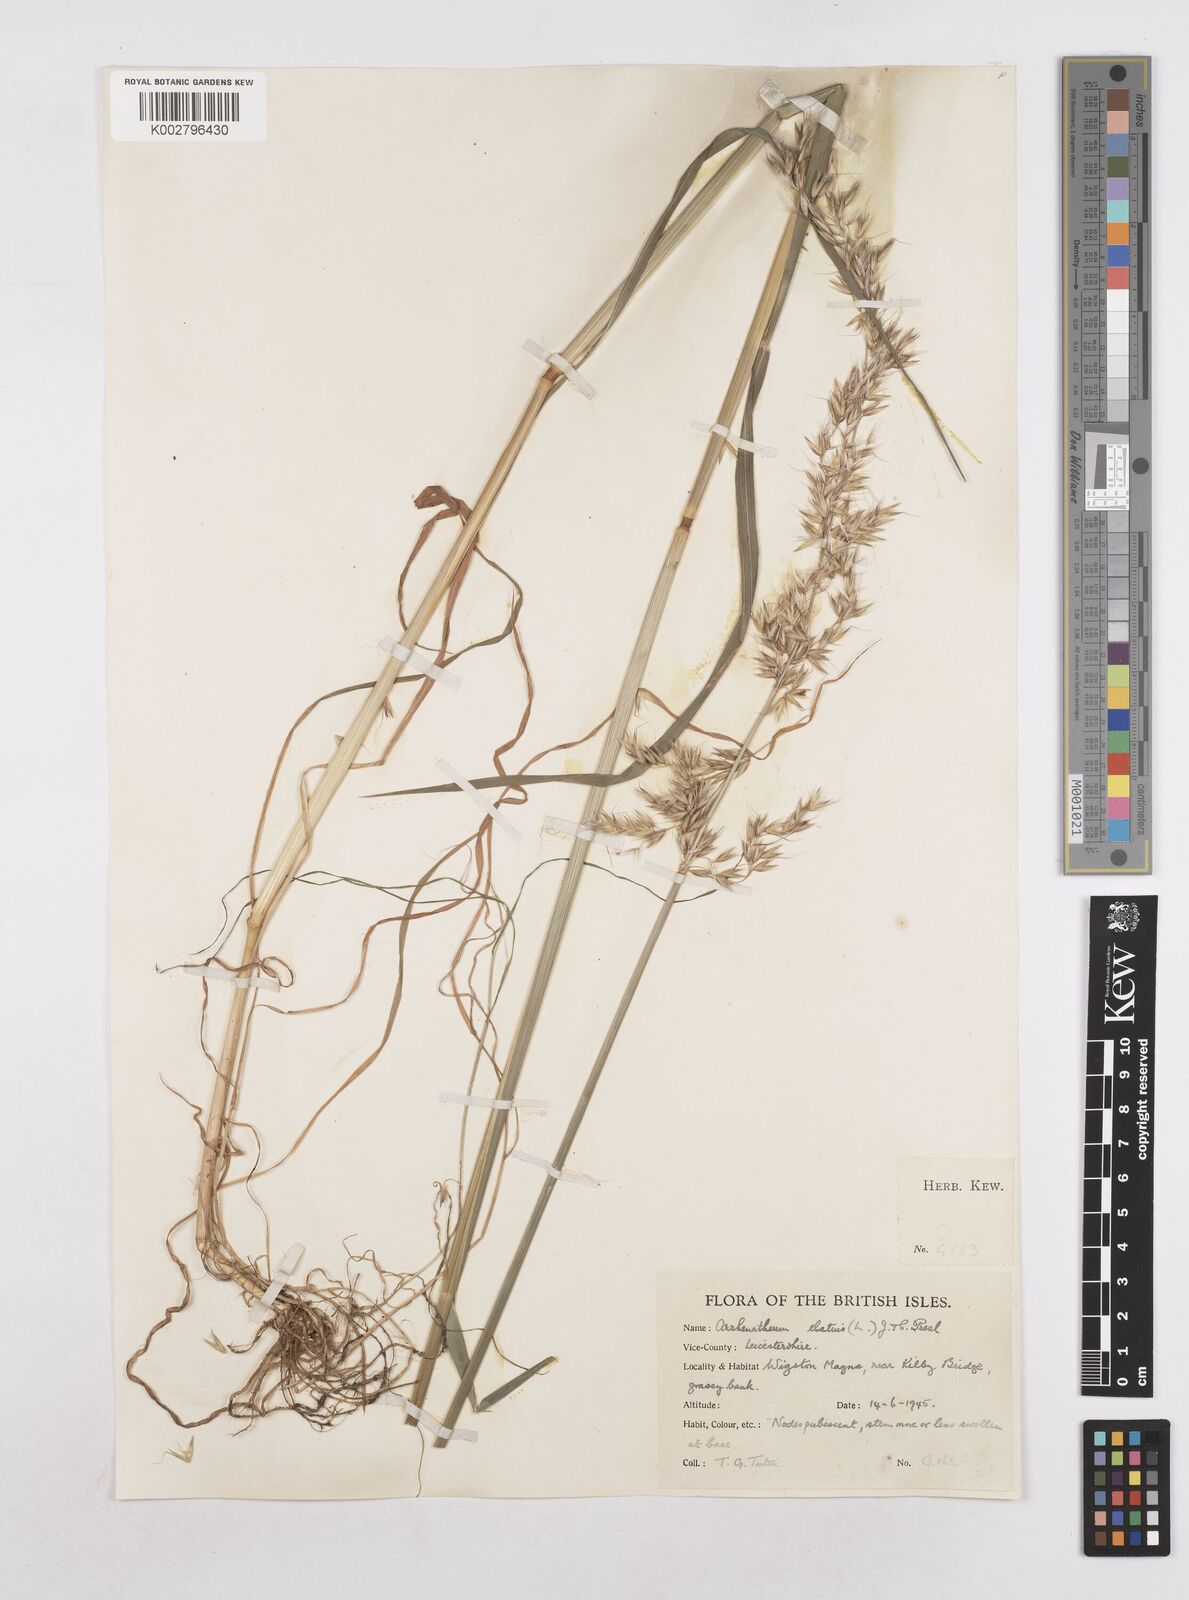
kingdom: Plantae
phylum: Tracheophyta
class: Liliopsida
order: Poales
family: Poaceae
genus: Arrhenatherum
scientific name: Arrhenatherum elatius
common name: Tall oatgrass
